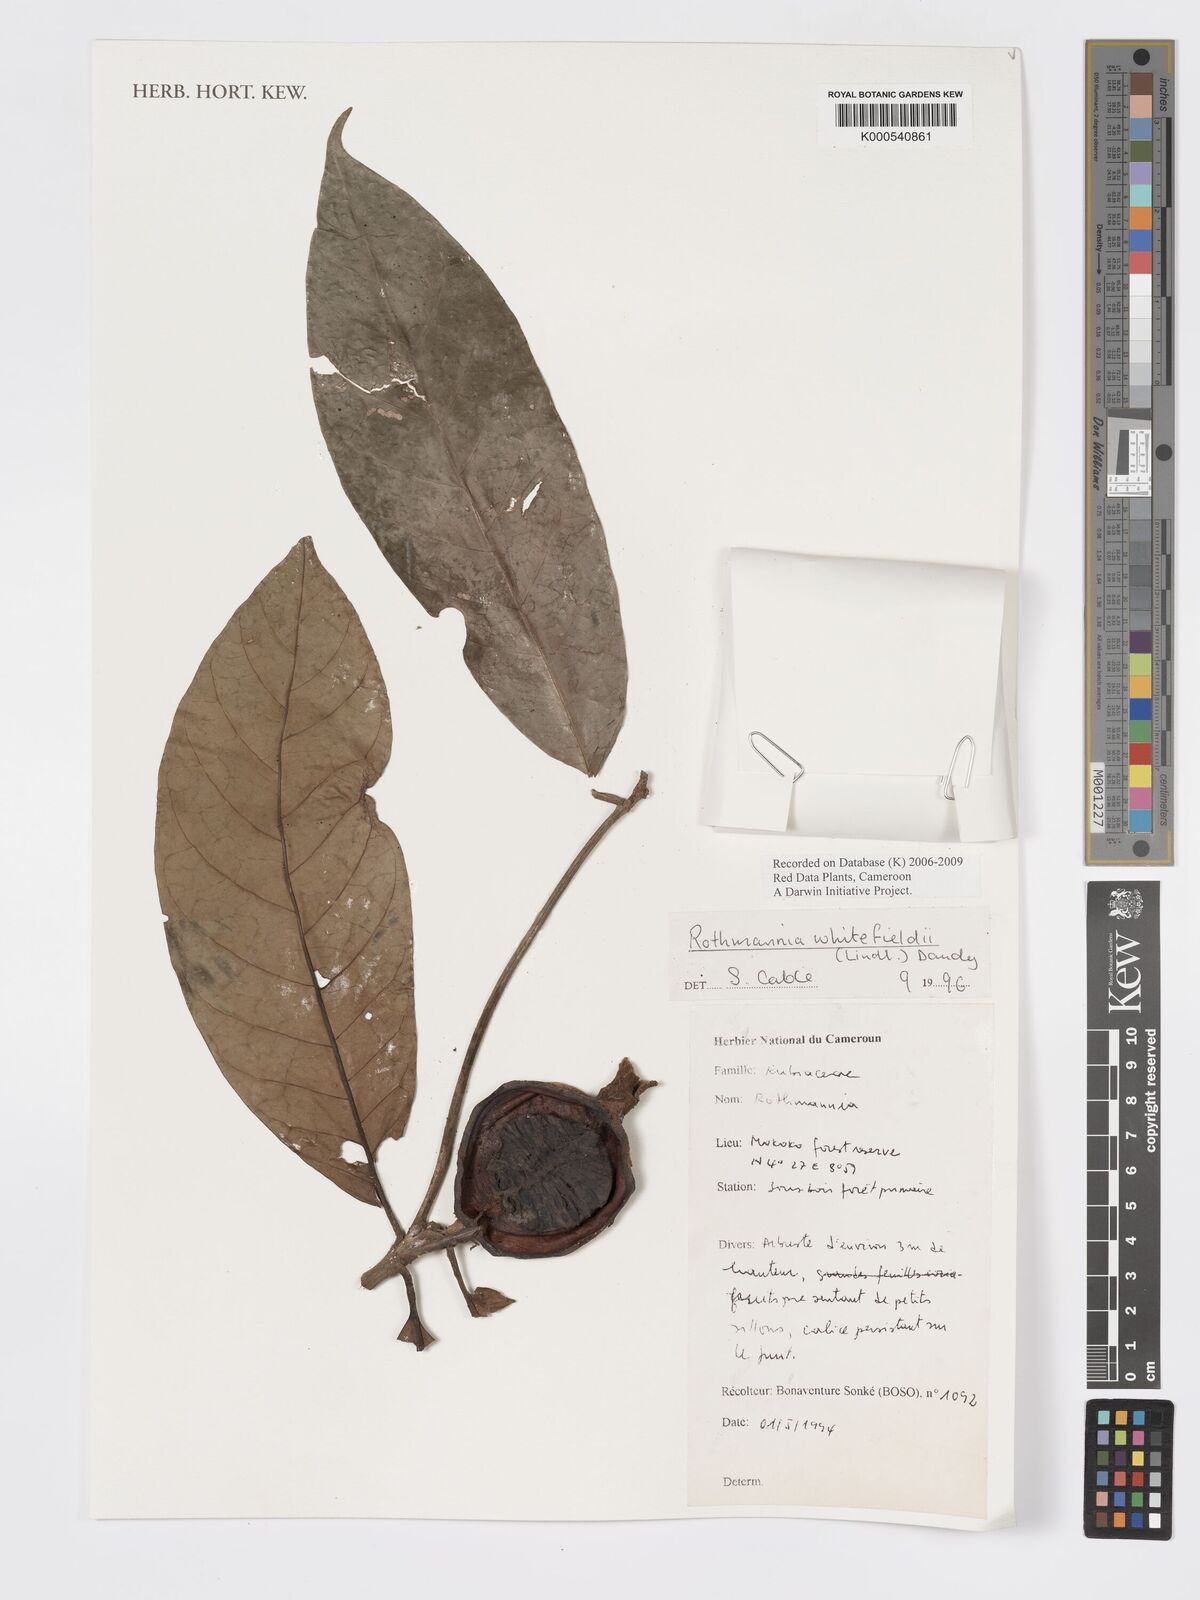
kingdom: Plantae
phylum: Tracheophyta
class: Magnoliopsida
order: Gentianales
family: Rubiaceae
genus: Rothmannia
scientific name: Rothmannia whitfieldii
